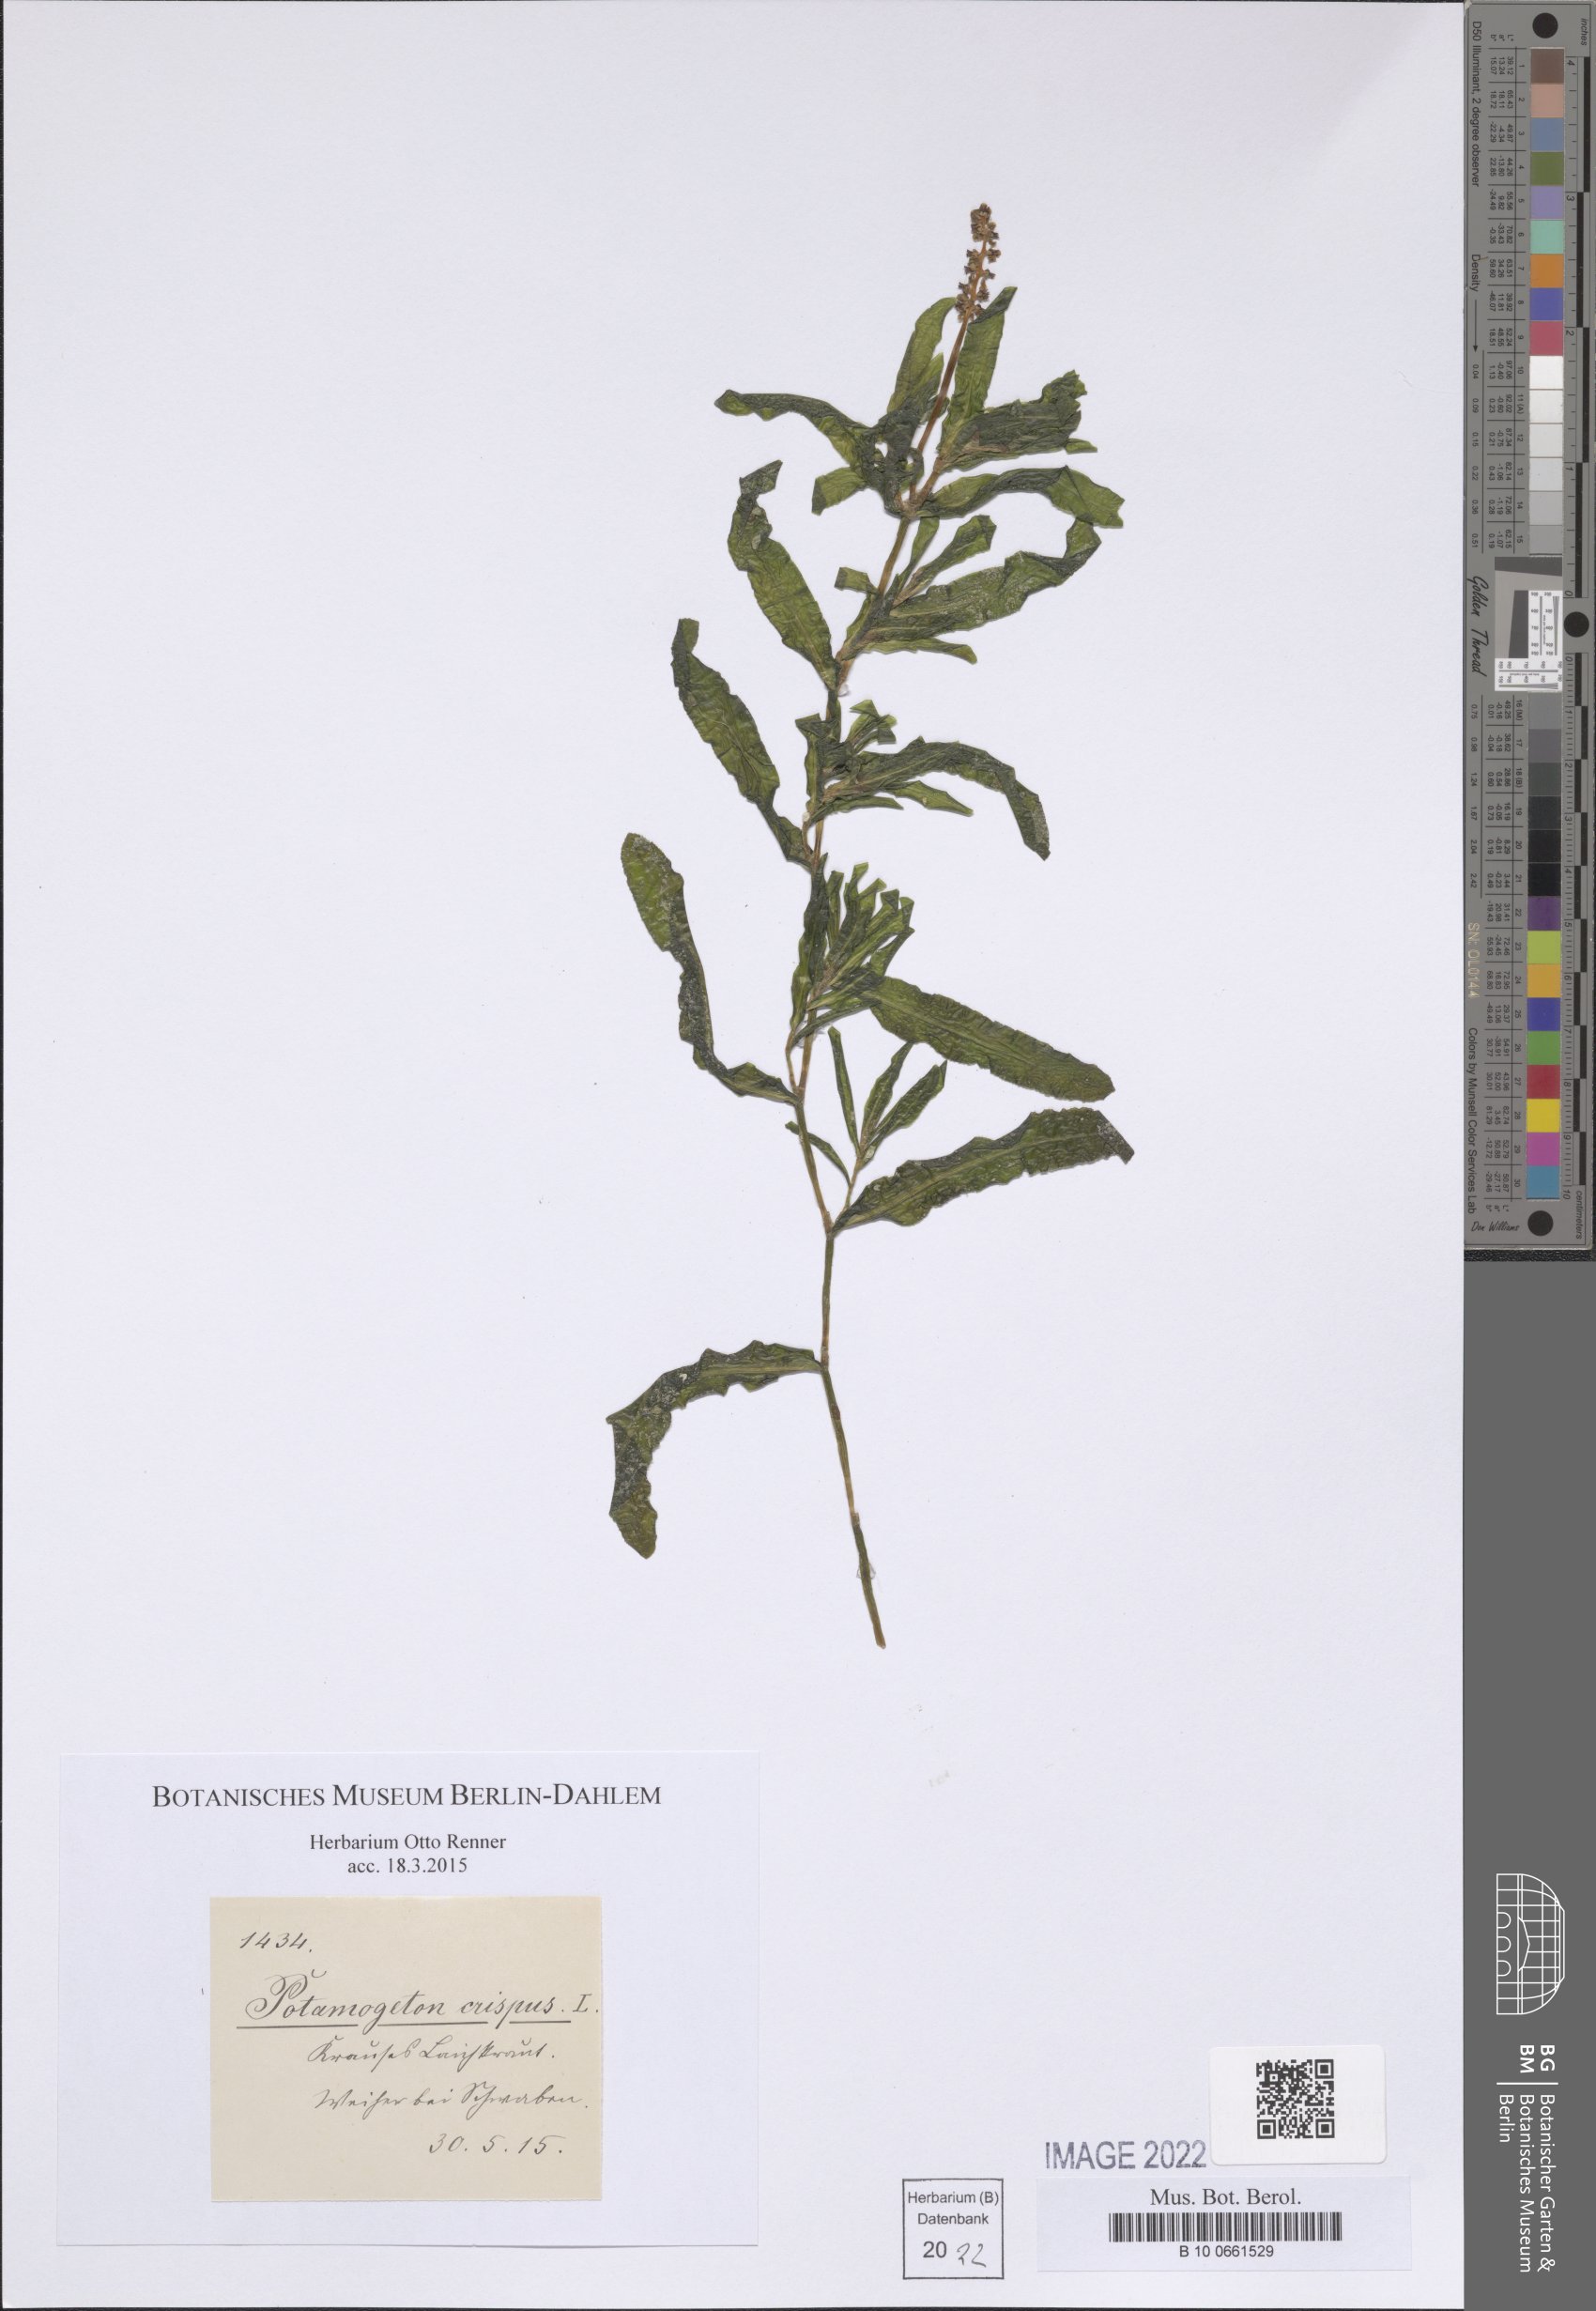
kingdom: Plantae
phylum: Tracheophyta
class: Liliopsida
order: Alismatales
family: Potamogetonaceae
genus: Potamogeton
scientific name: Potamogeton crispus
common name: Curled pondweed
